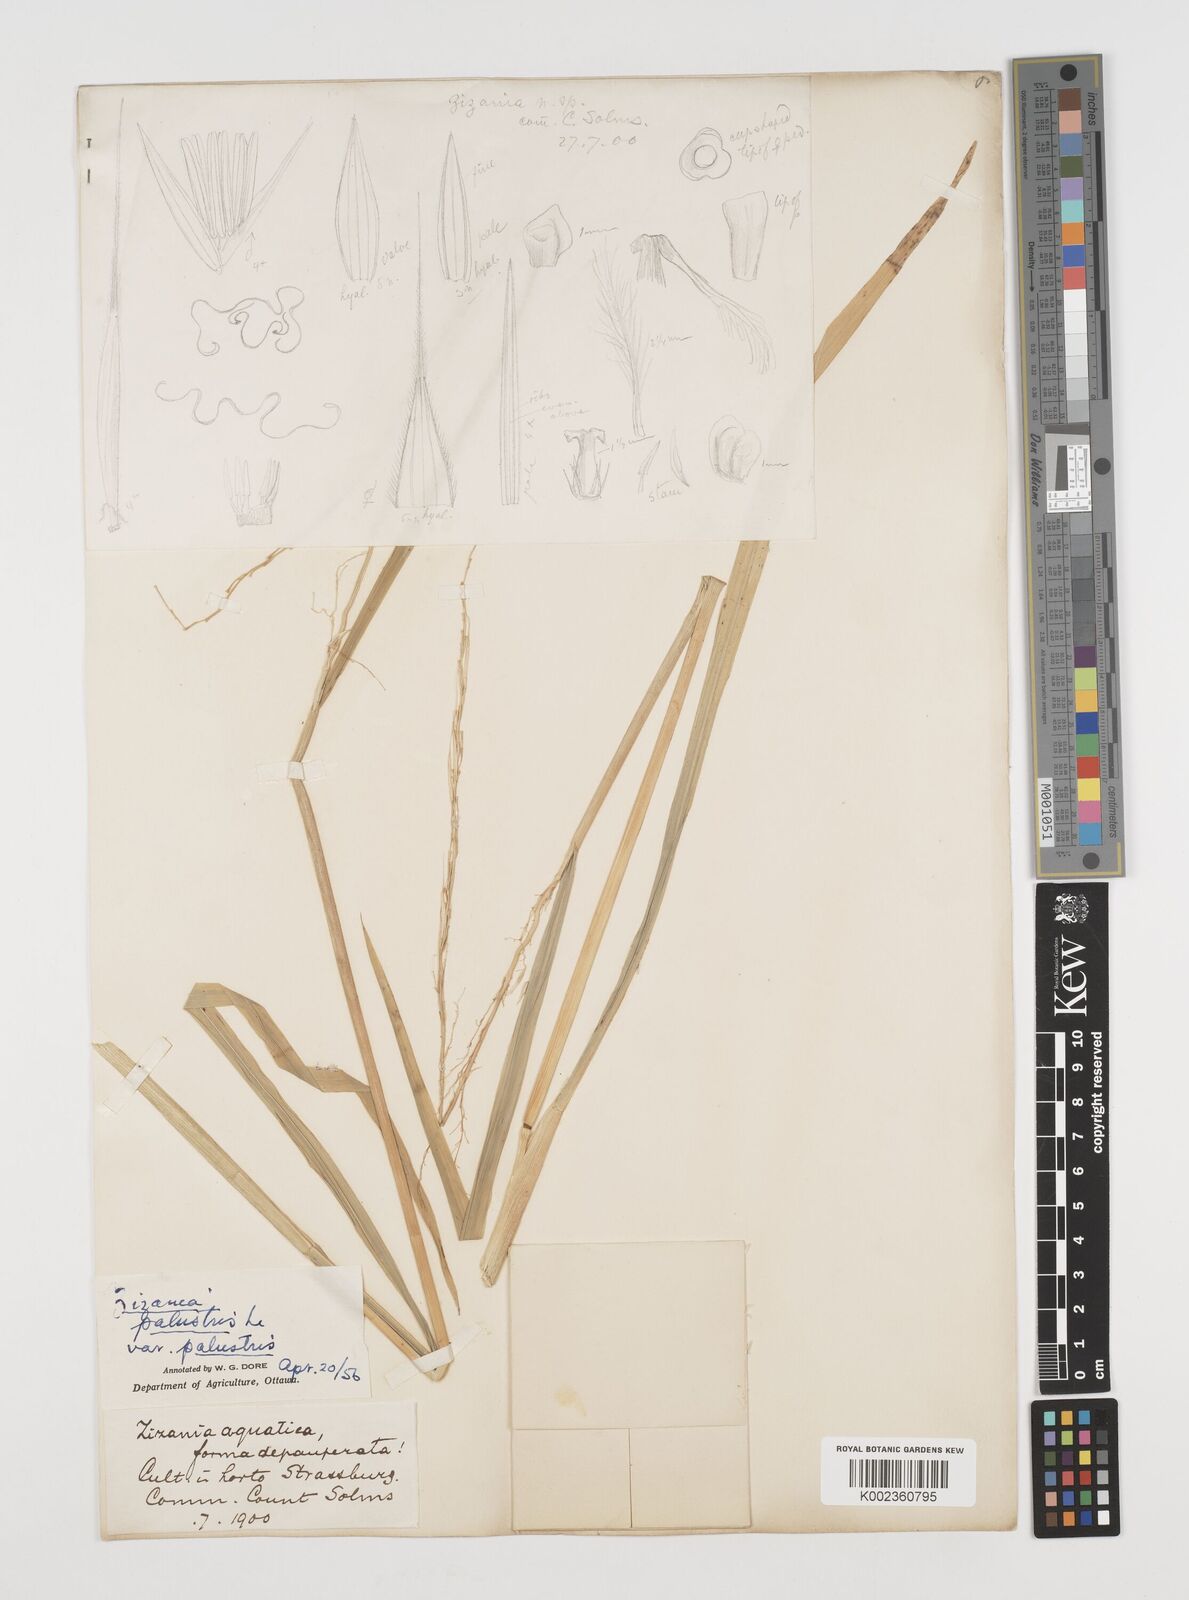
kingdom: Plantae
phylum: Tracheophyta
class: Liliopsida
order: Poales
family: Poaceae
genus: Zizania
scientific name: Zizania palustris
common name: Northern wild rice
